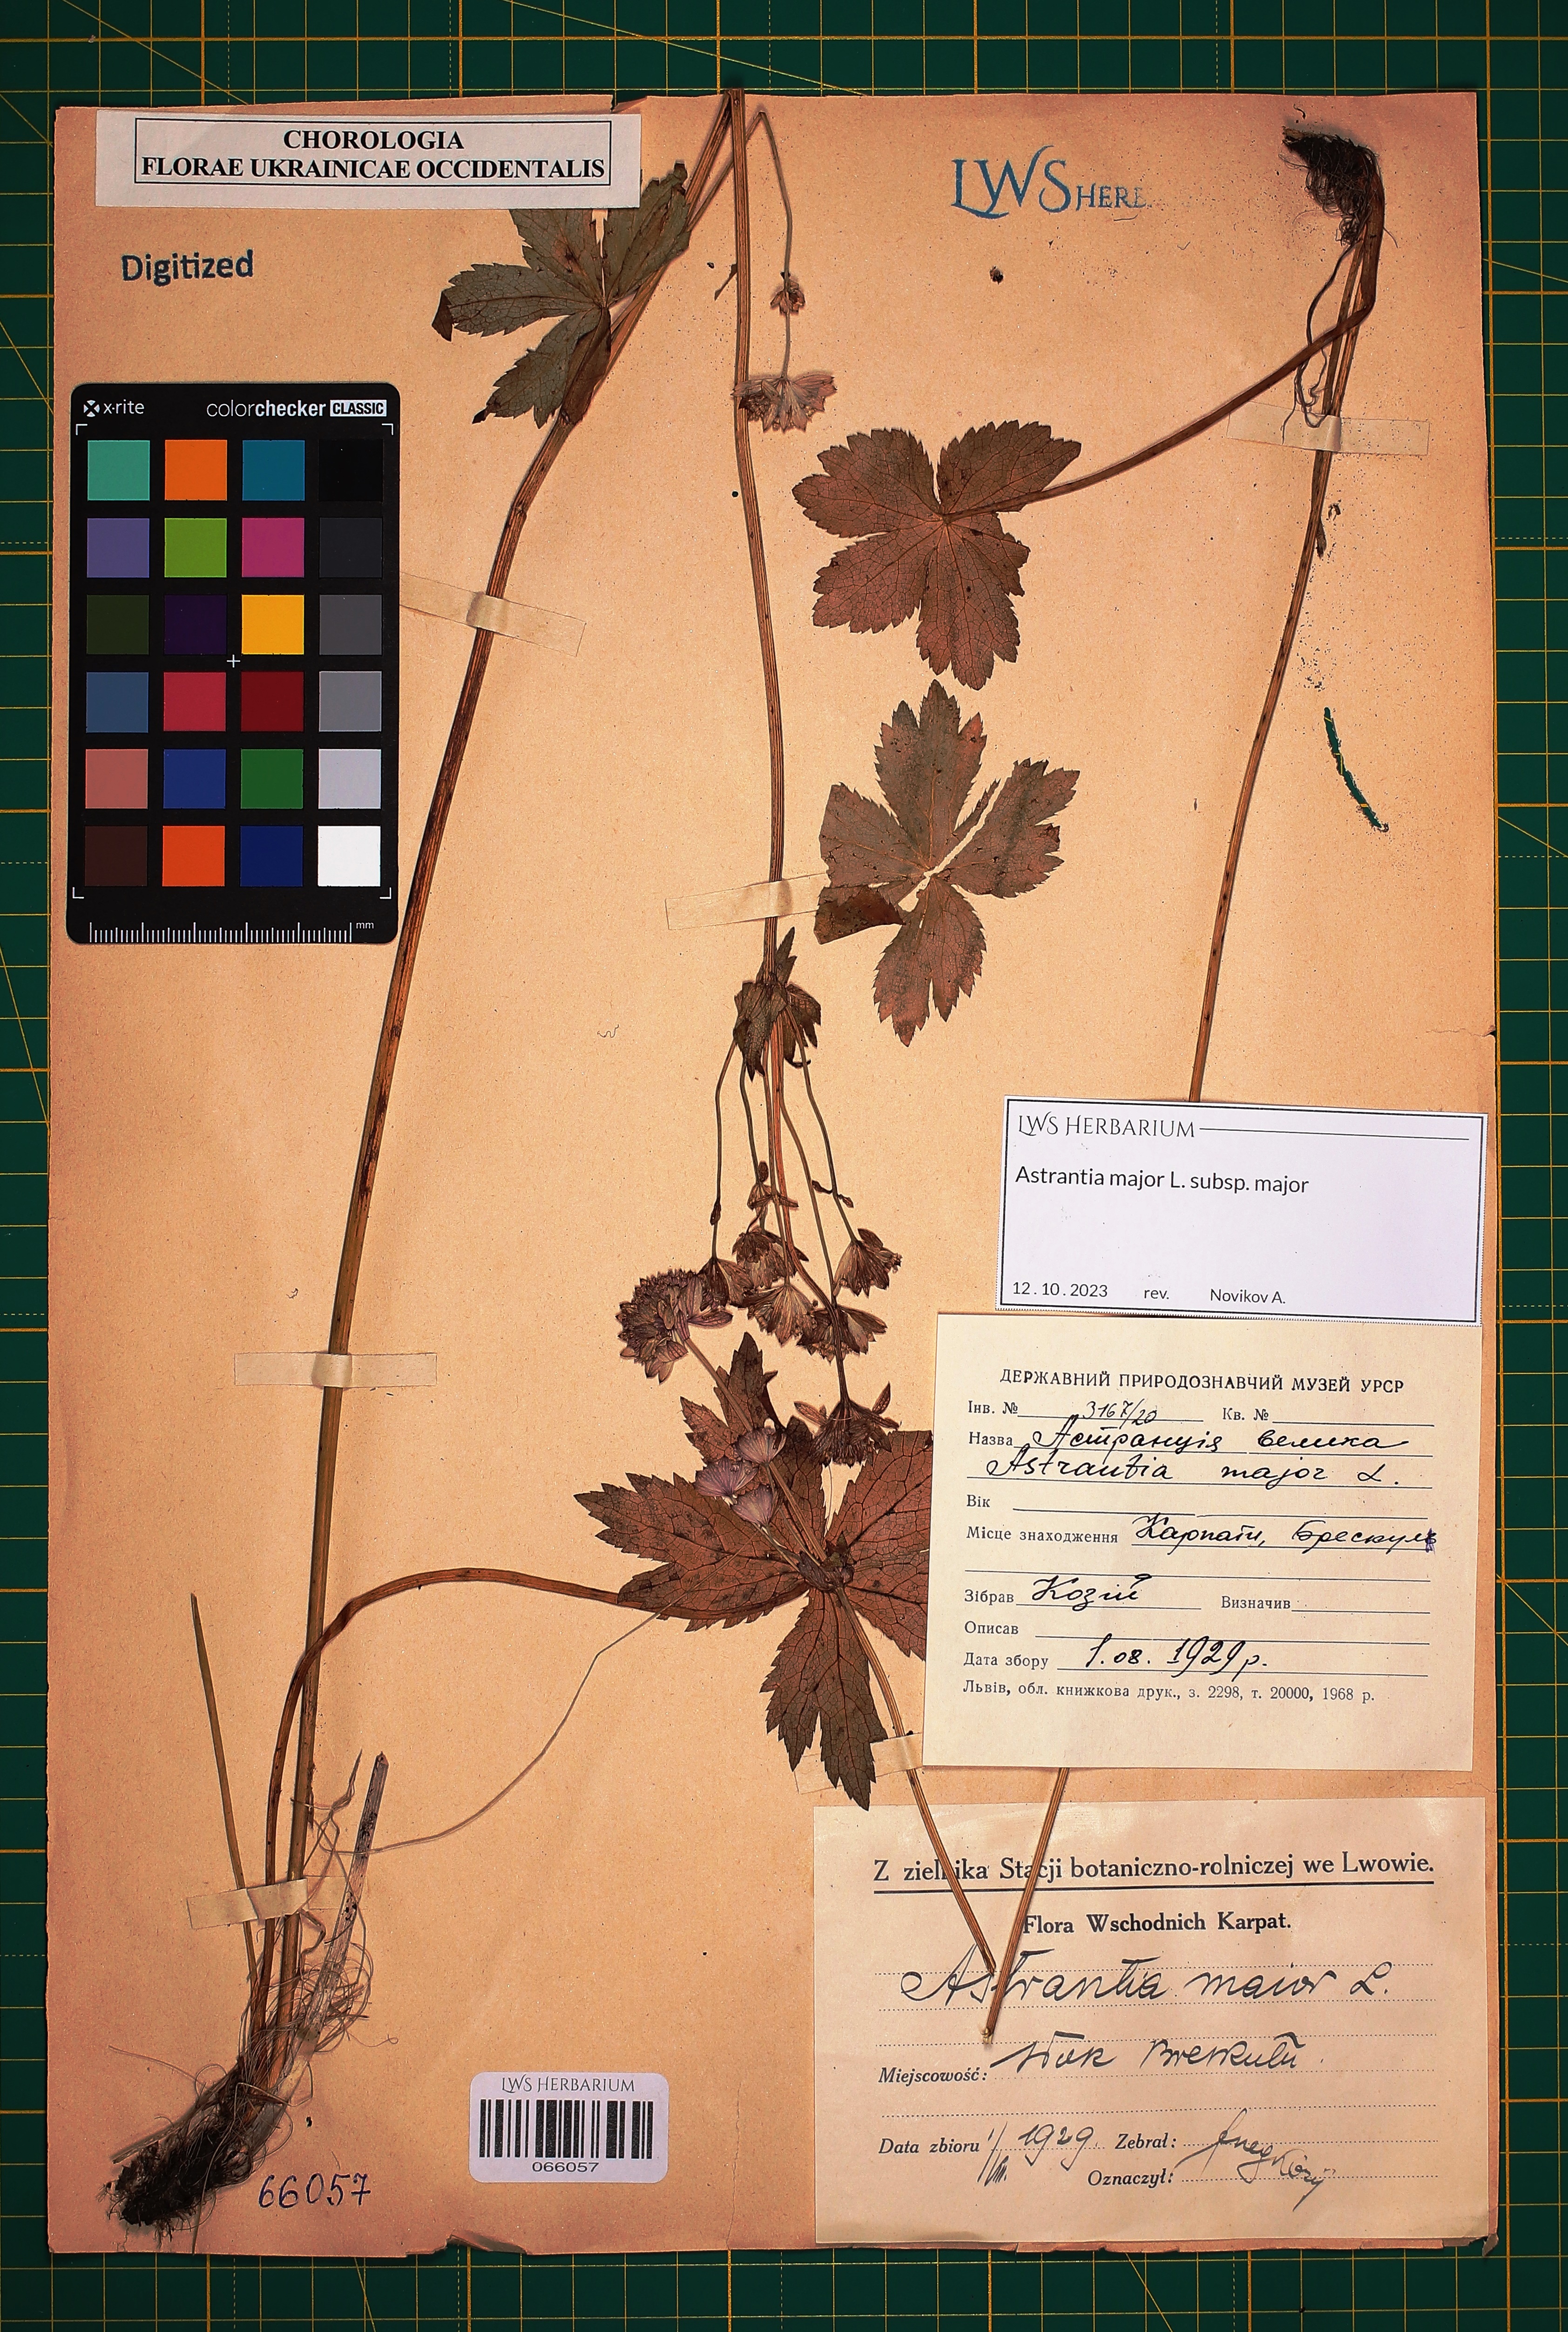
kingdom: Plantae
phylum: Tracheophyta
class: Magnoliopsida
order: Apiales
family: Apiaceae
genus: Astrantia
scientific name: Astrantia major
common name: Greater masterwort
